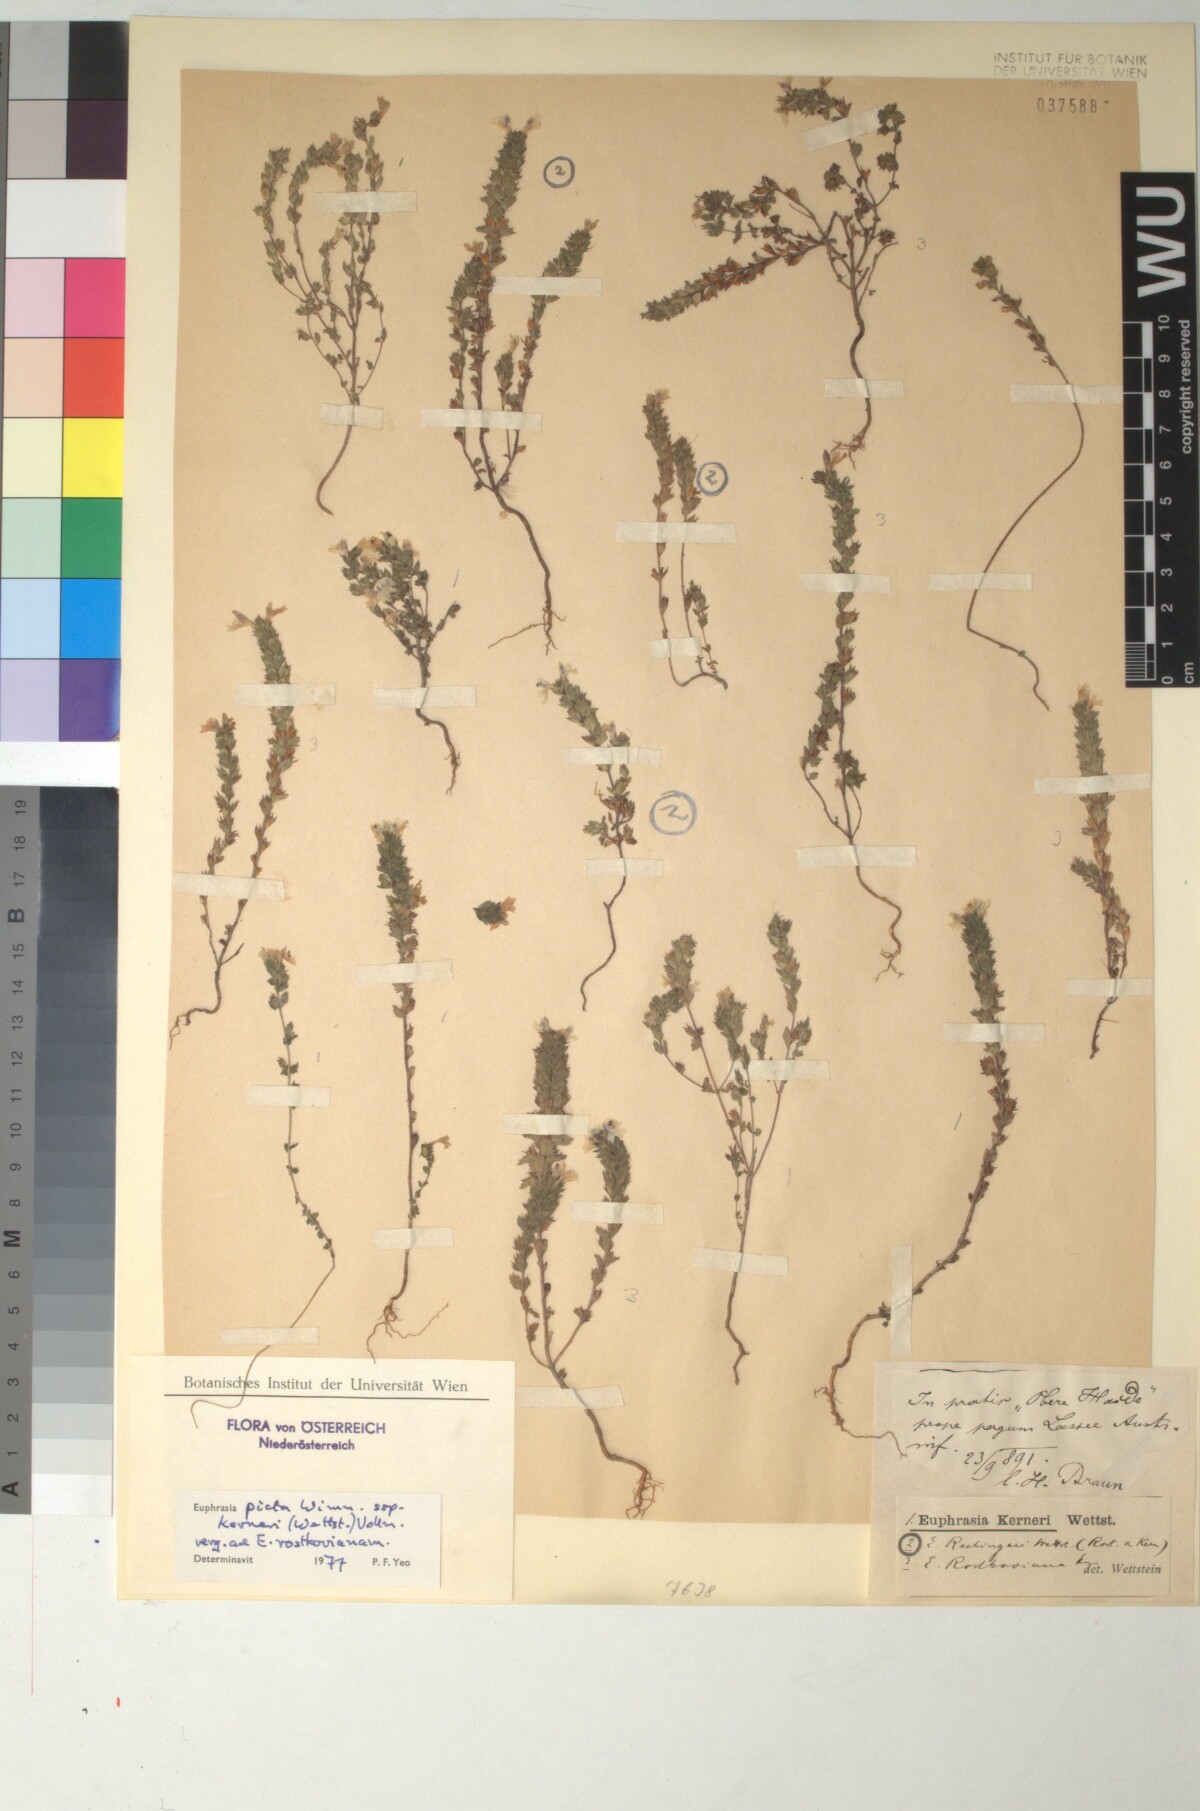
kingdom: Plantae
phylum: Tracheophyta
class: Magnoliopsida
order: Lamiales
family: Scrophulariaceae
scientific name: Scrophulariaceae
